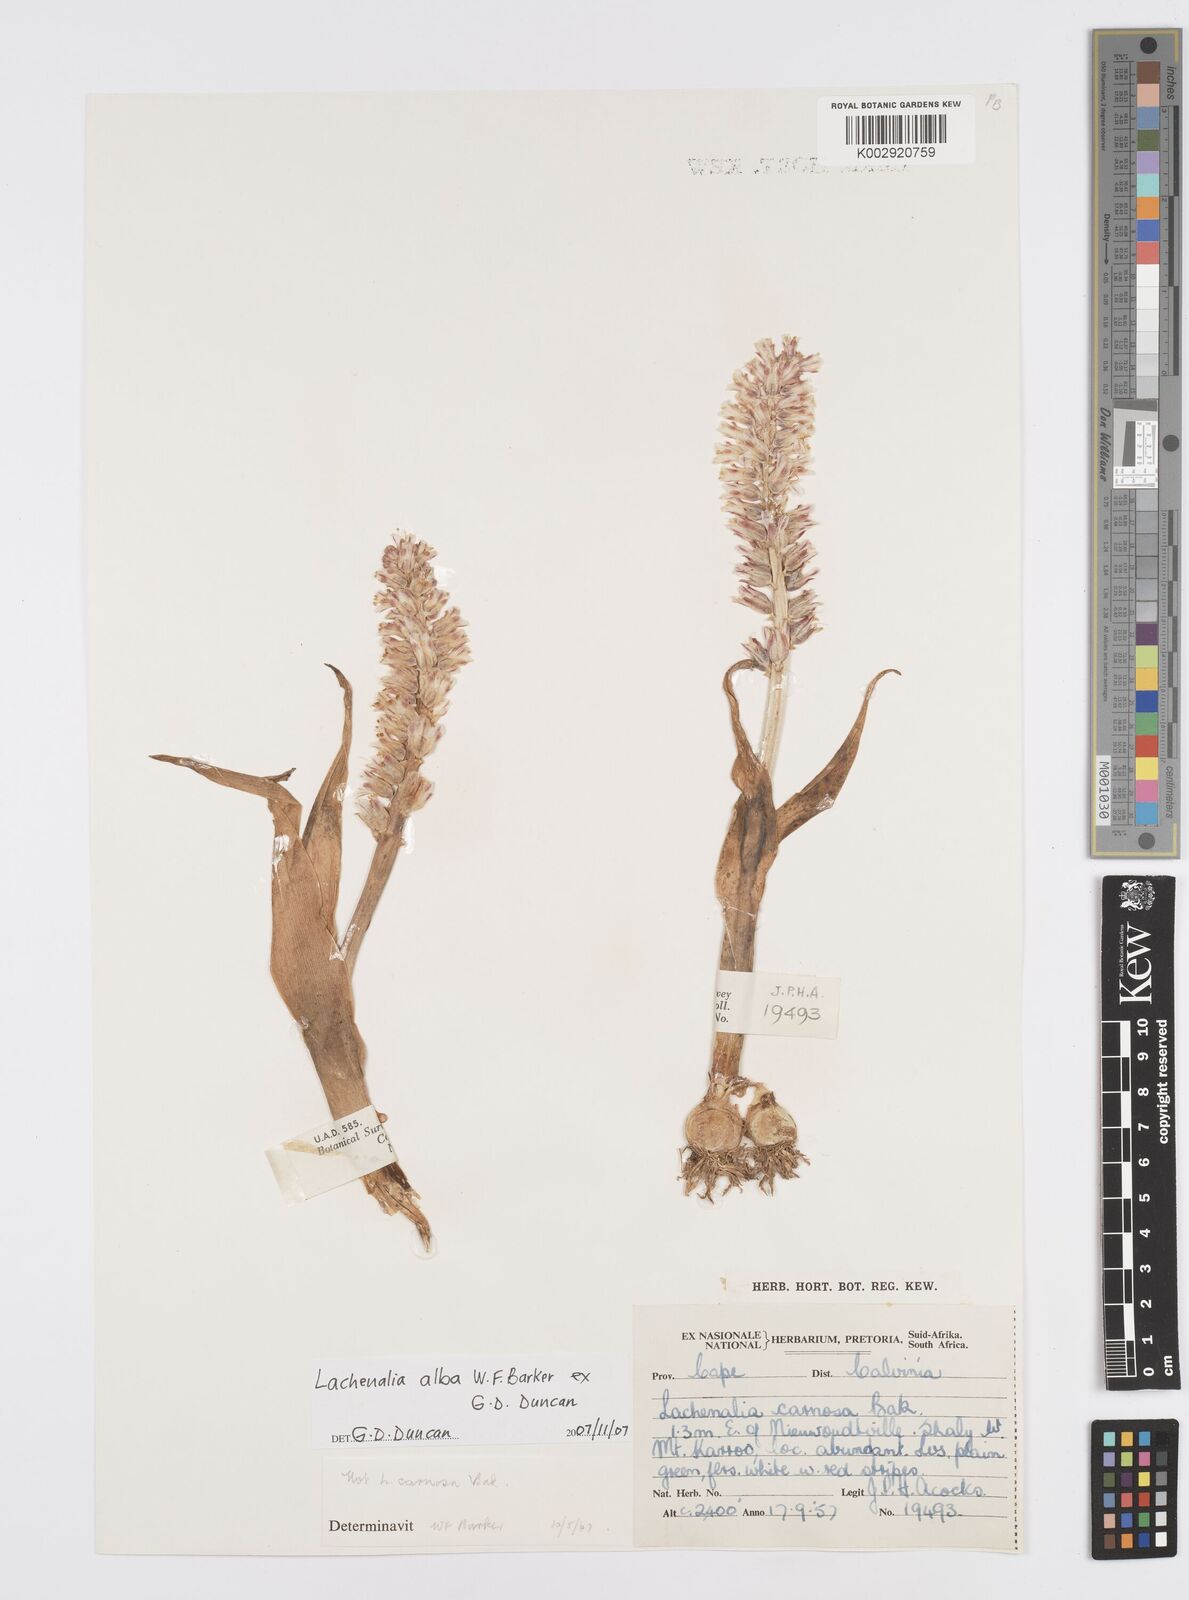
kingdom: Plantae
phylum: Tracheophyta
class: Liliopsida
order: Asparagales
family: Asparagaceae
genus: Lachenalia
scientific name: Lachenalia alba
